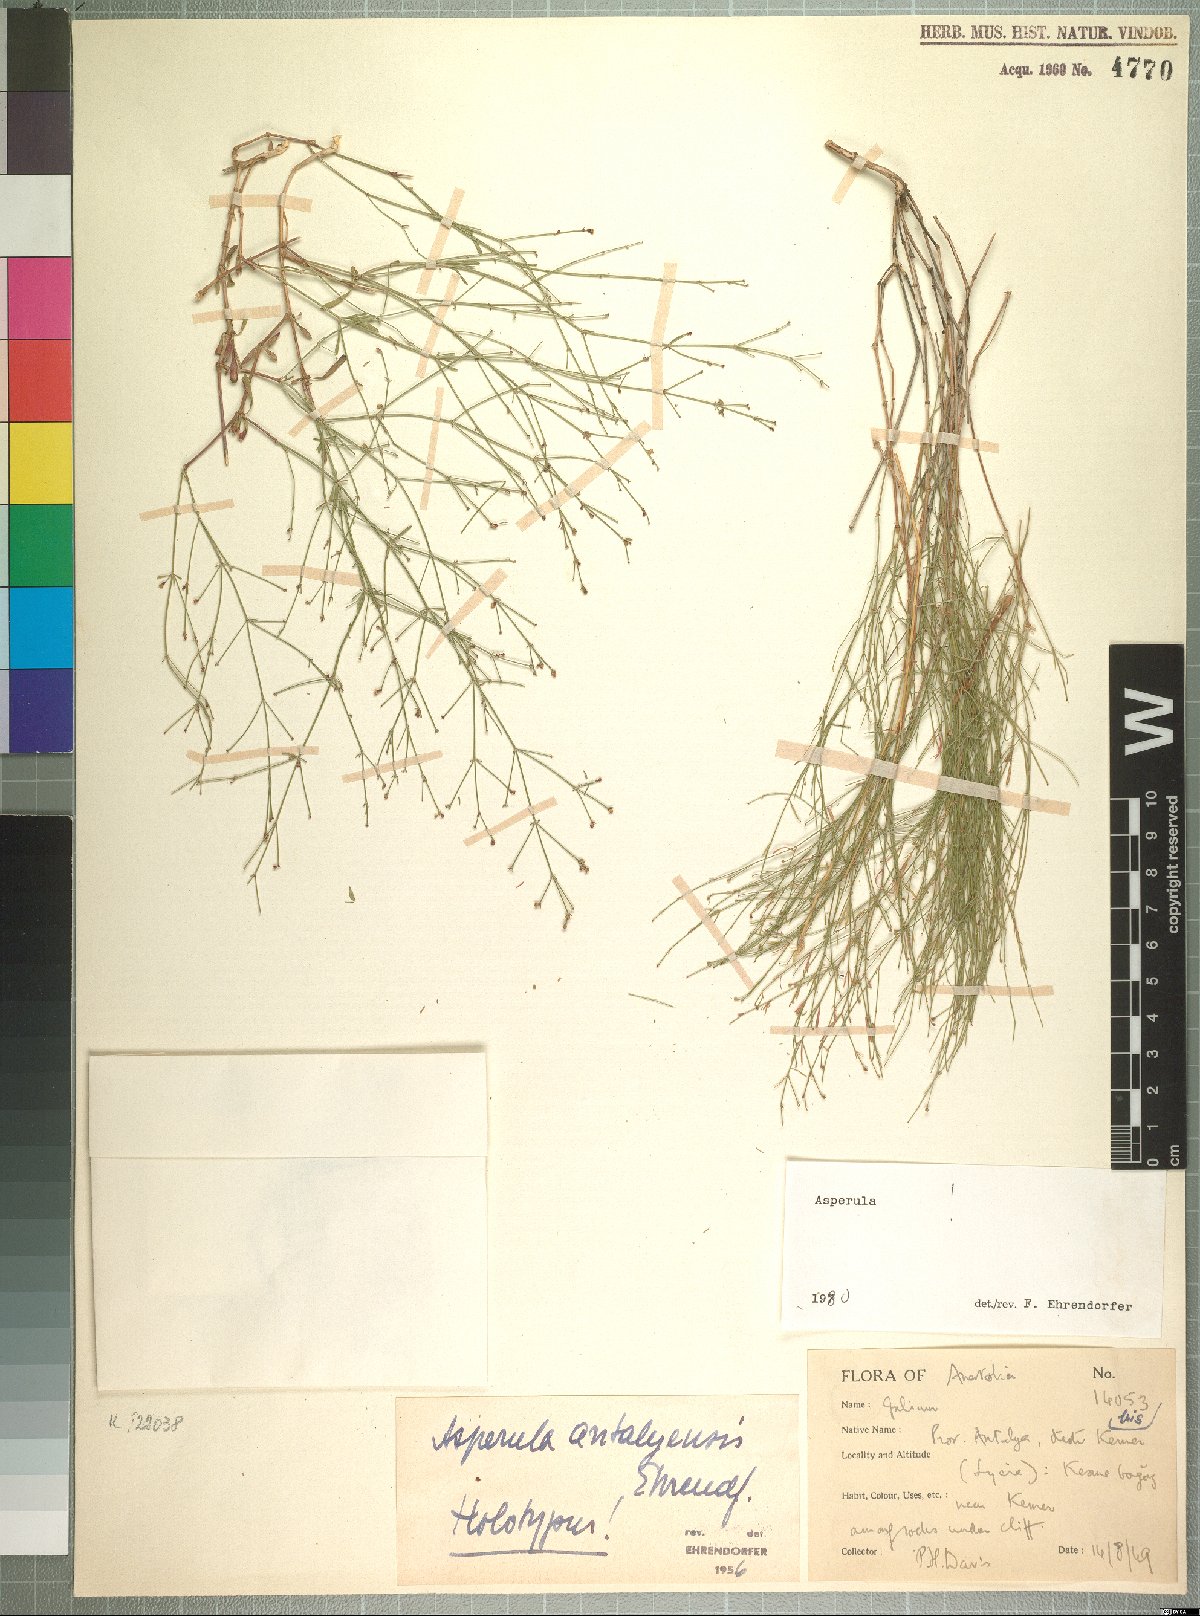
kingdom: Plantae
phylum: Tracheophyta
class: Magnoliopsida
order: Gentianales
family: Rubiaceae
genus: Thliphthisa
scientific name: Thliphthisa antalyensis
